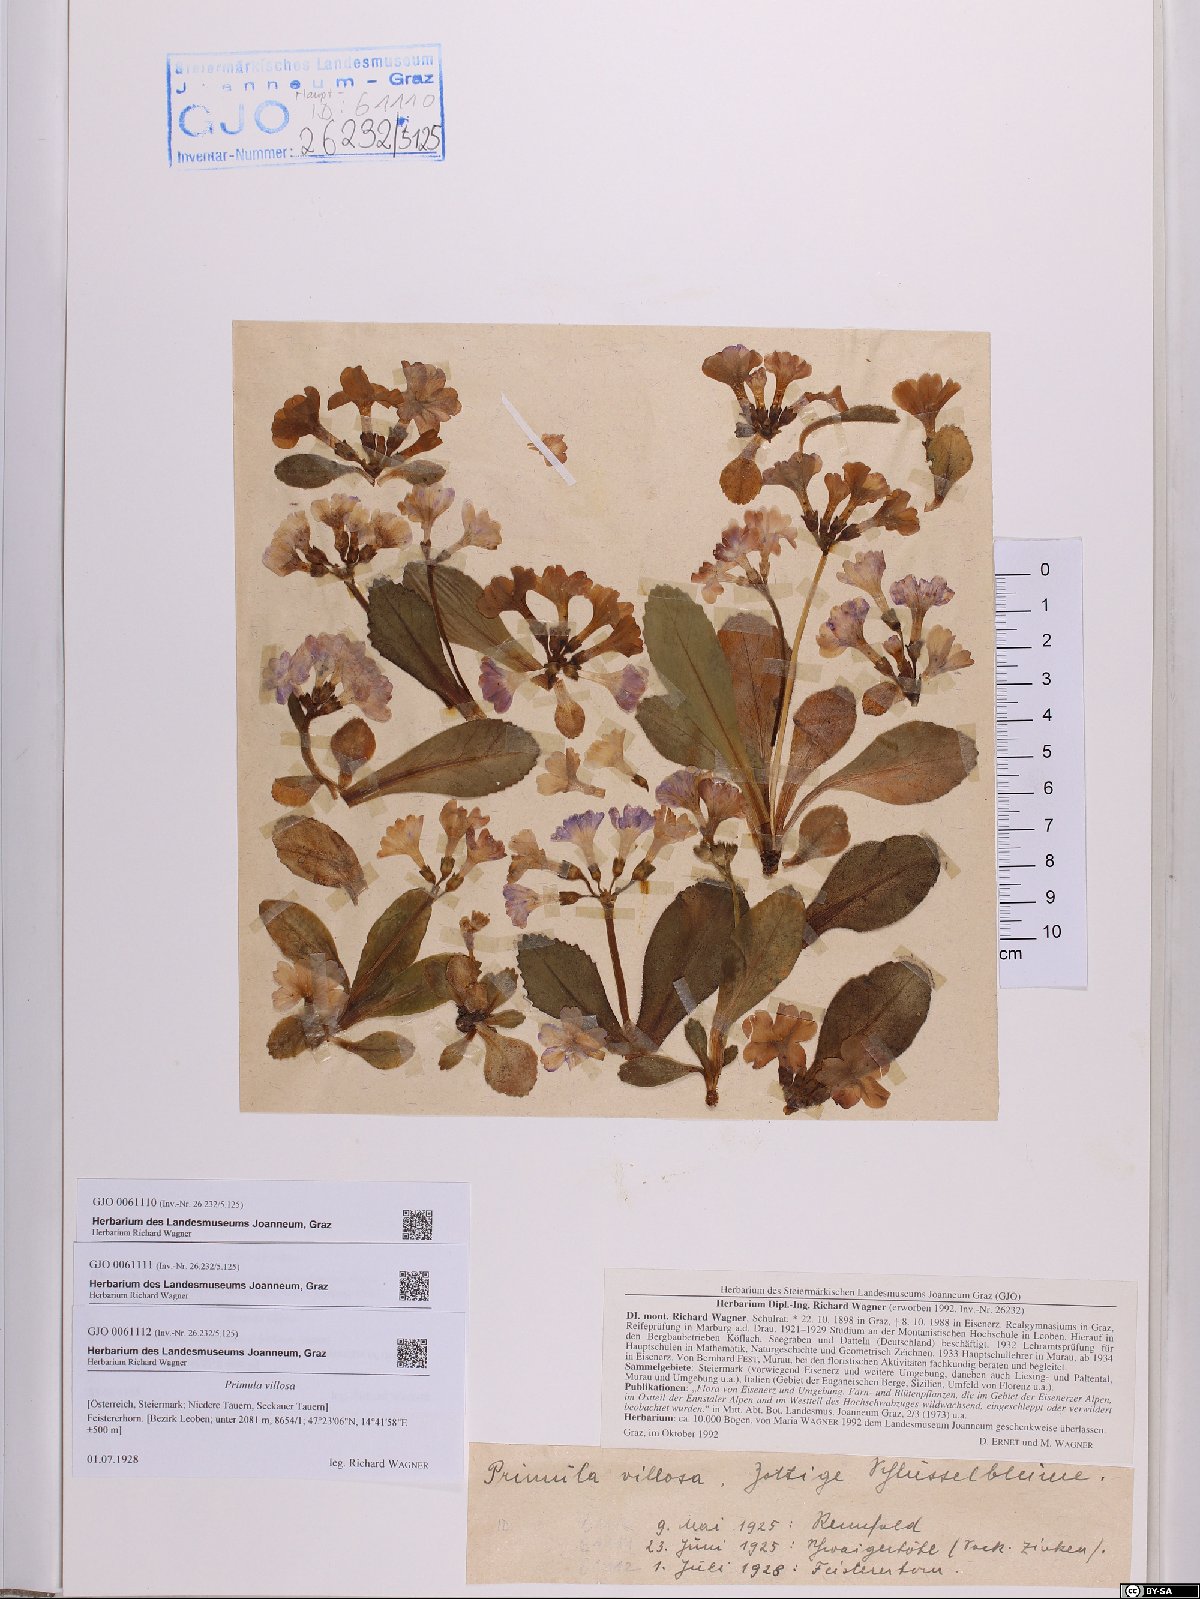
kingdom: Plantae
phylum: Tracheophyta
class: Magnoliopsida
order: Ericales
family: Primulaceae
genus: Primula
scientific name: Primula villosa
